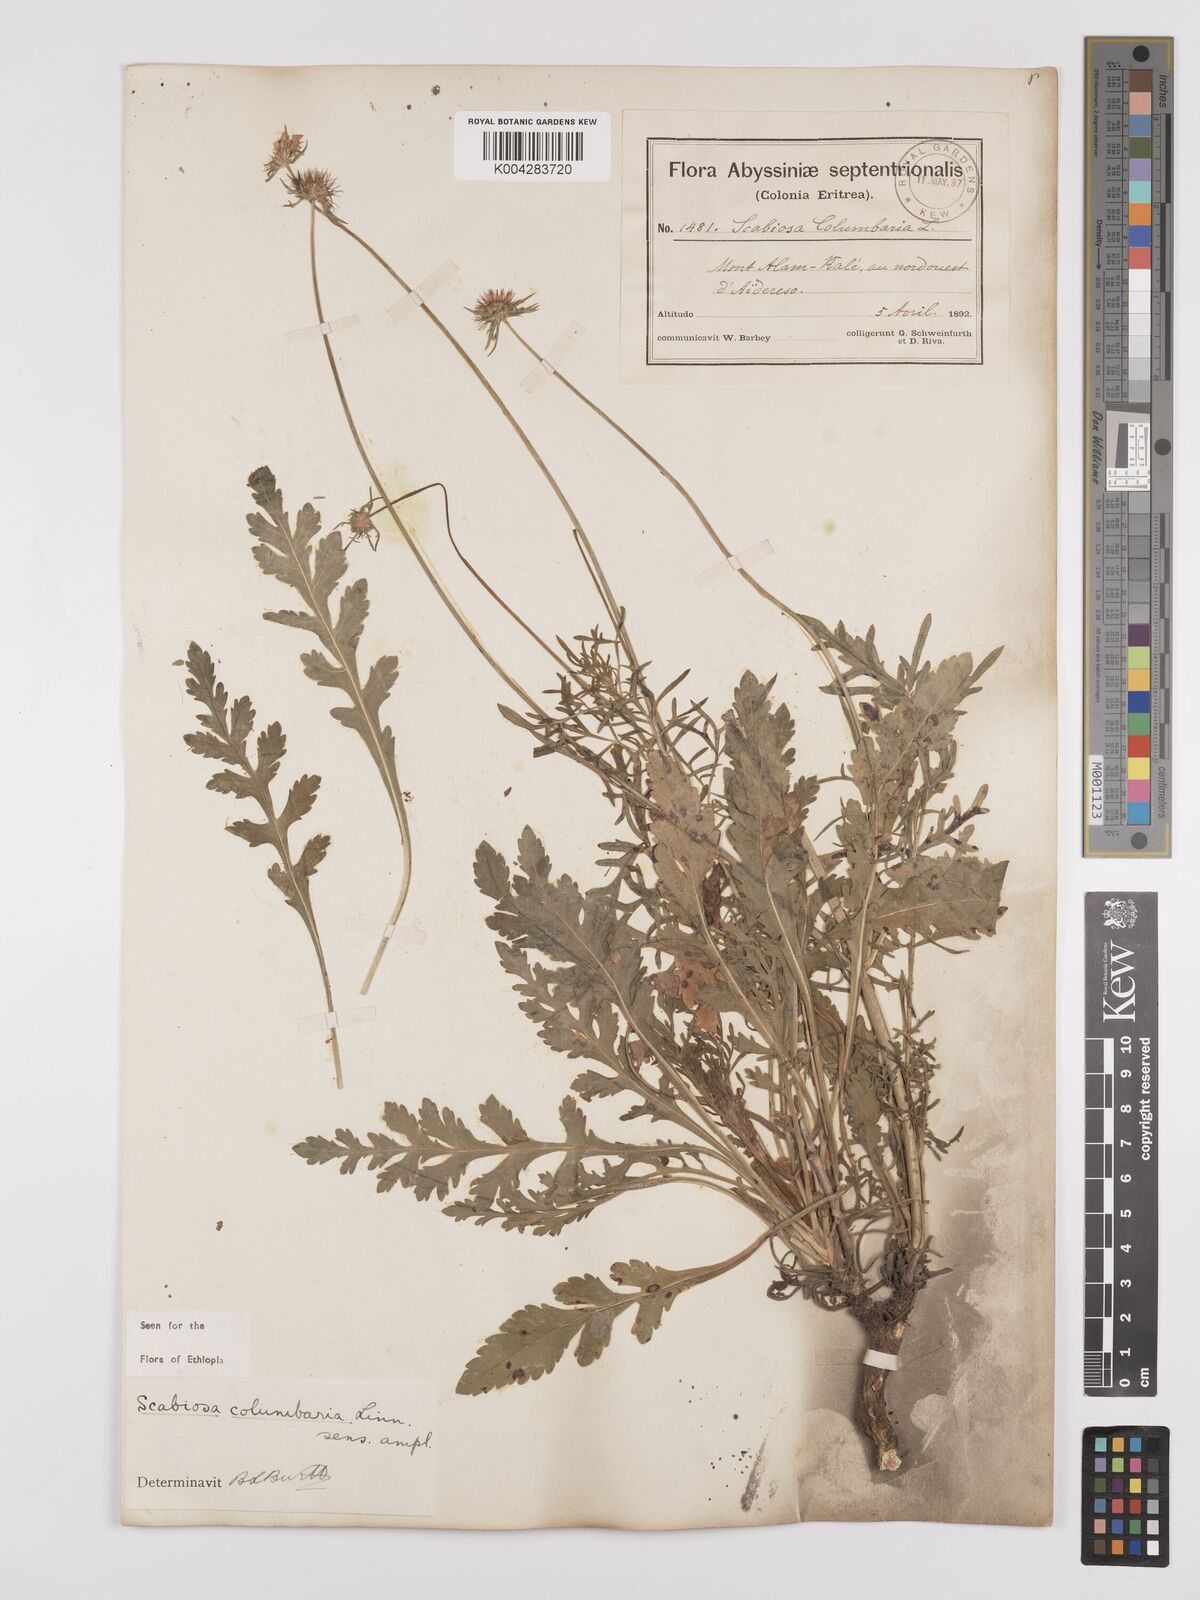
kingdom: Plantae
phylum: Tracheophyta
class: Magnoliopsida
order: Dipsacales
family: Caprifoliaceae
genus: Scabiosa
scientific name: Scabiosa columbaria
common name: Small scabious
